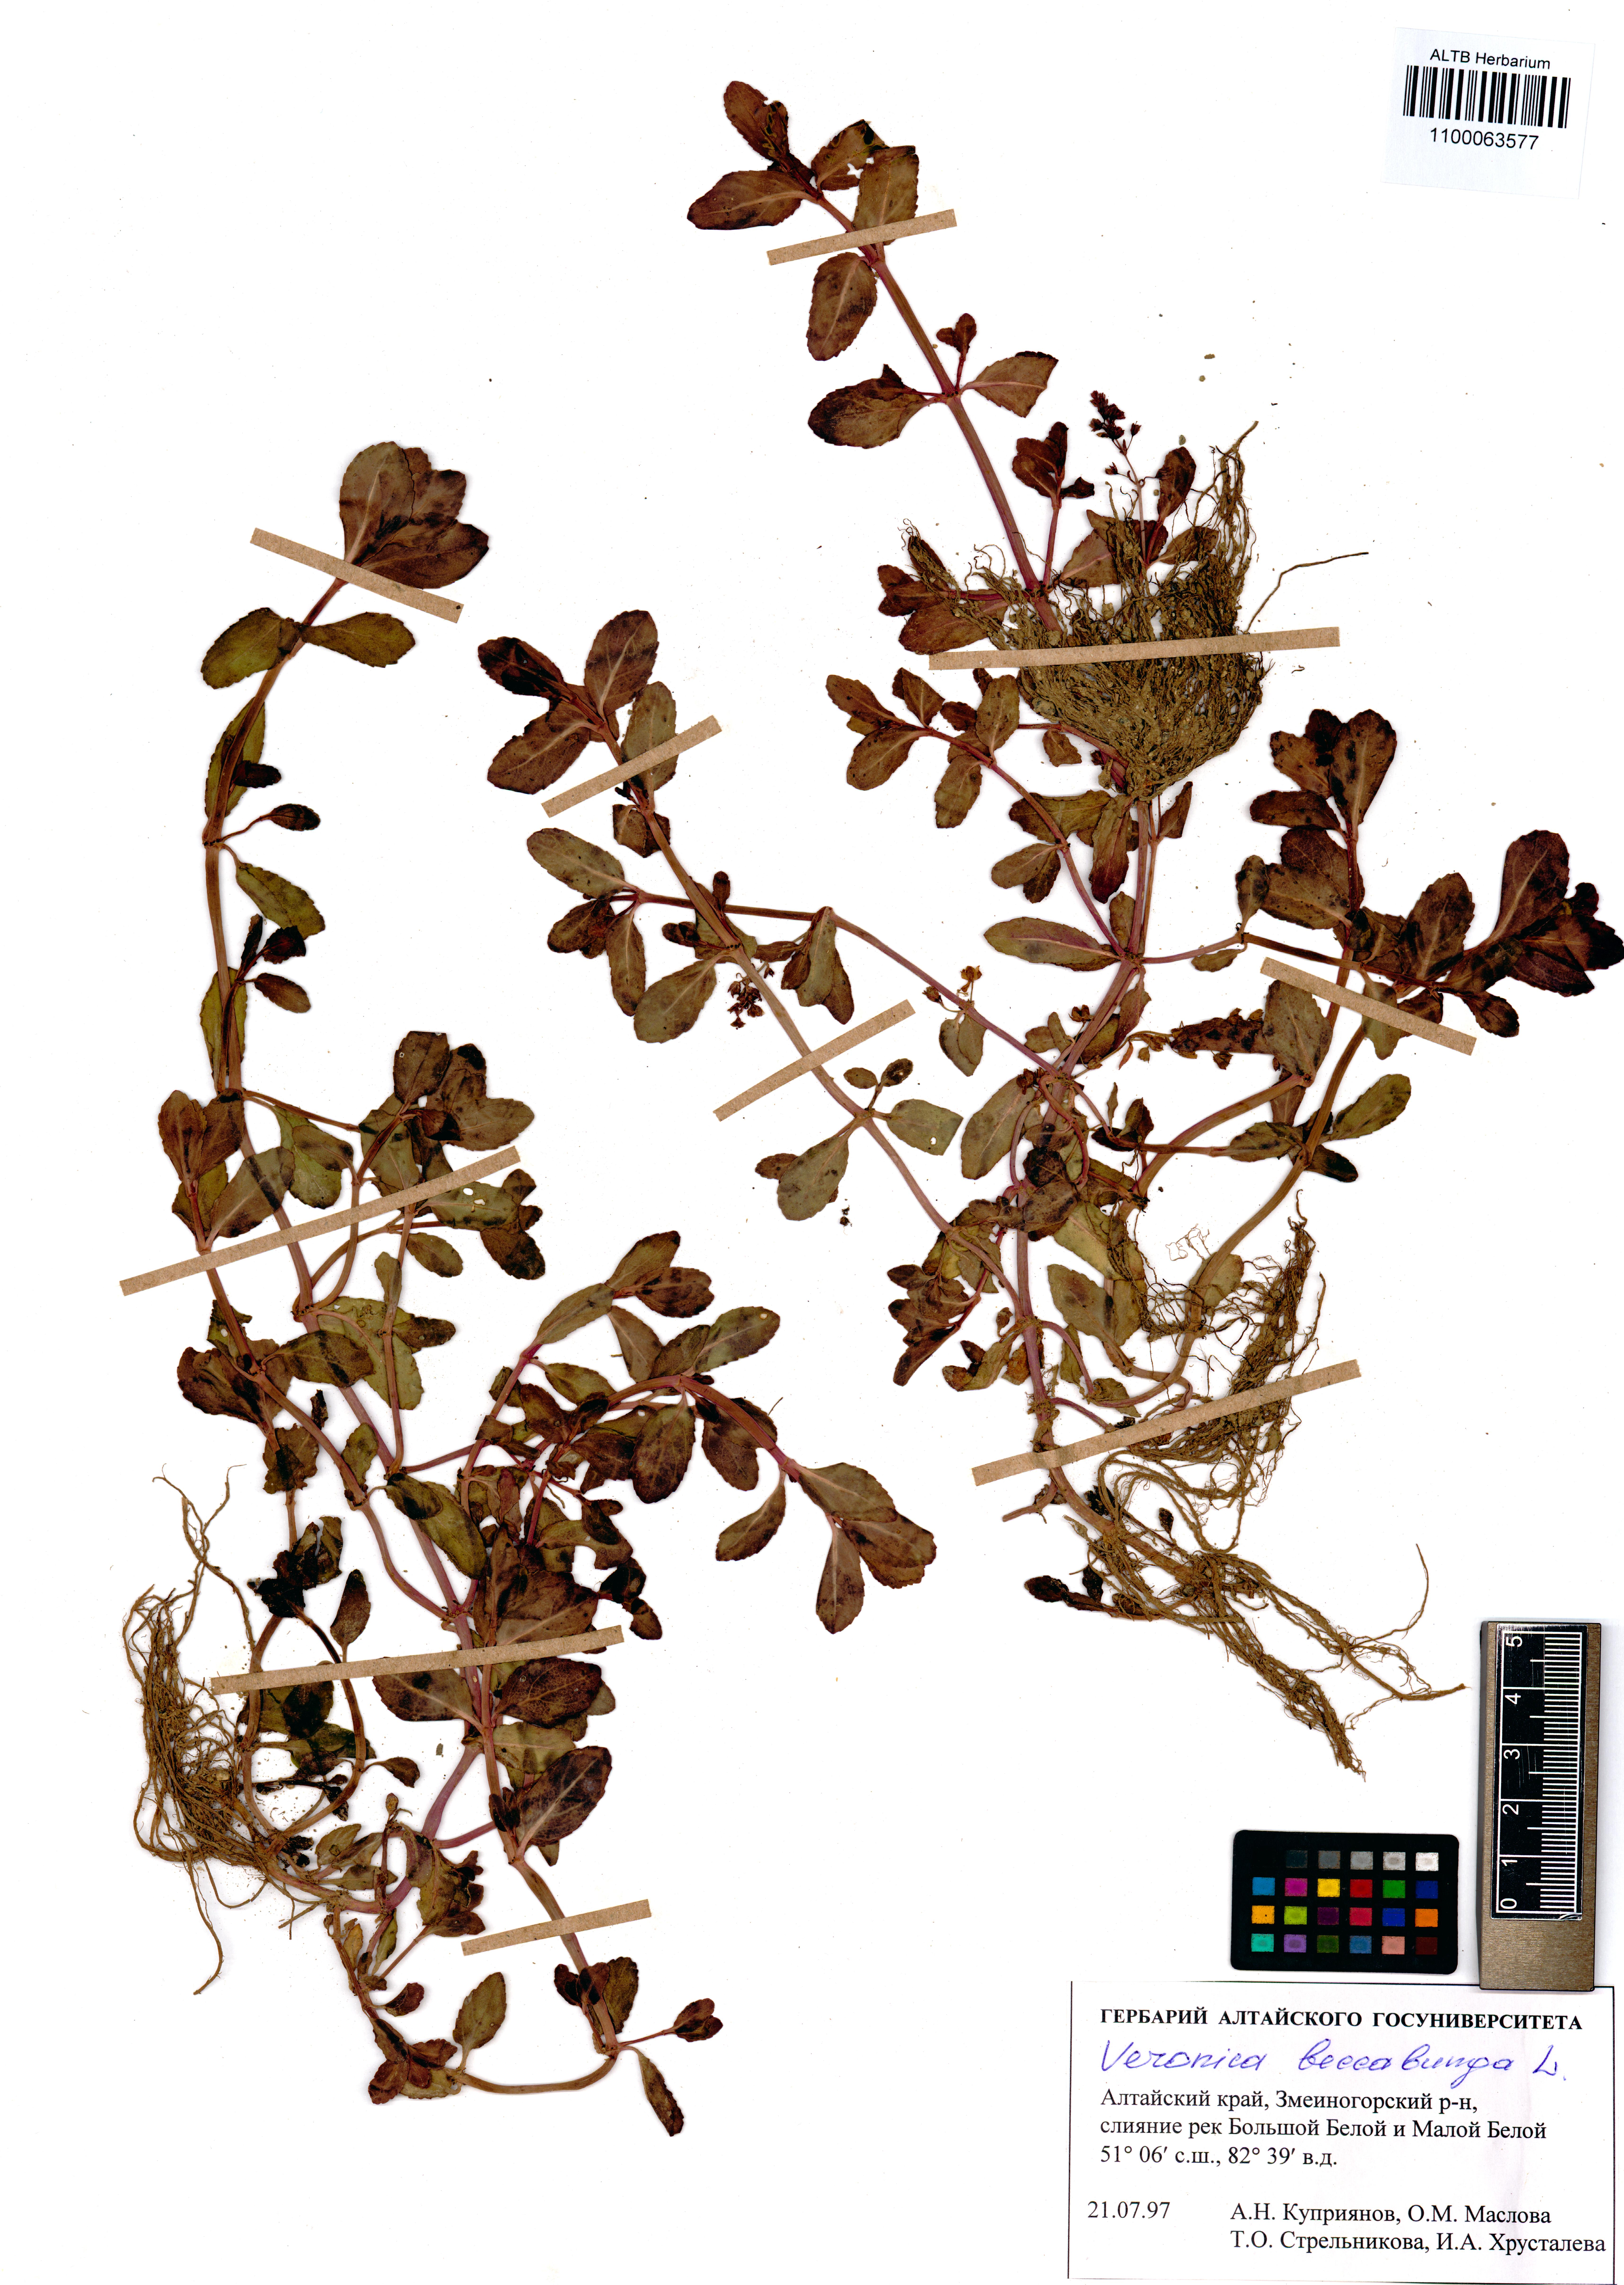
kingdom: Plantae
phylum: Tracheophyta
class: Magnoliopsida
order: Lamiales
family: Plantaginaceae
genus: Veronica
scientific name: Veronica beccabunga
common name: Brooklime
